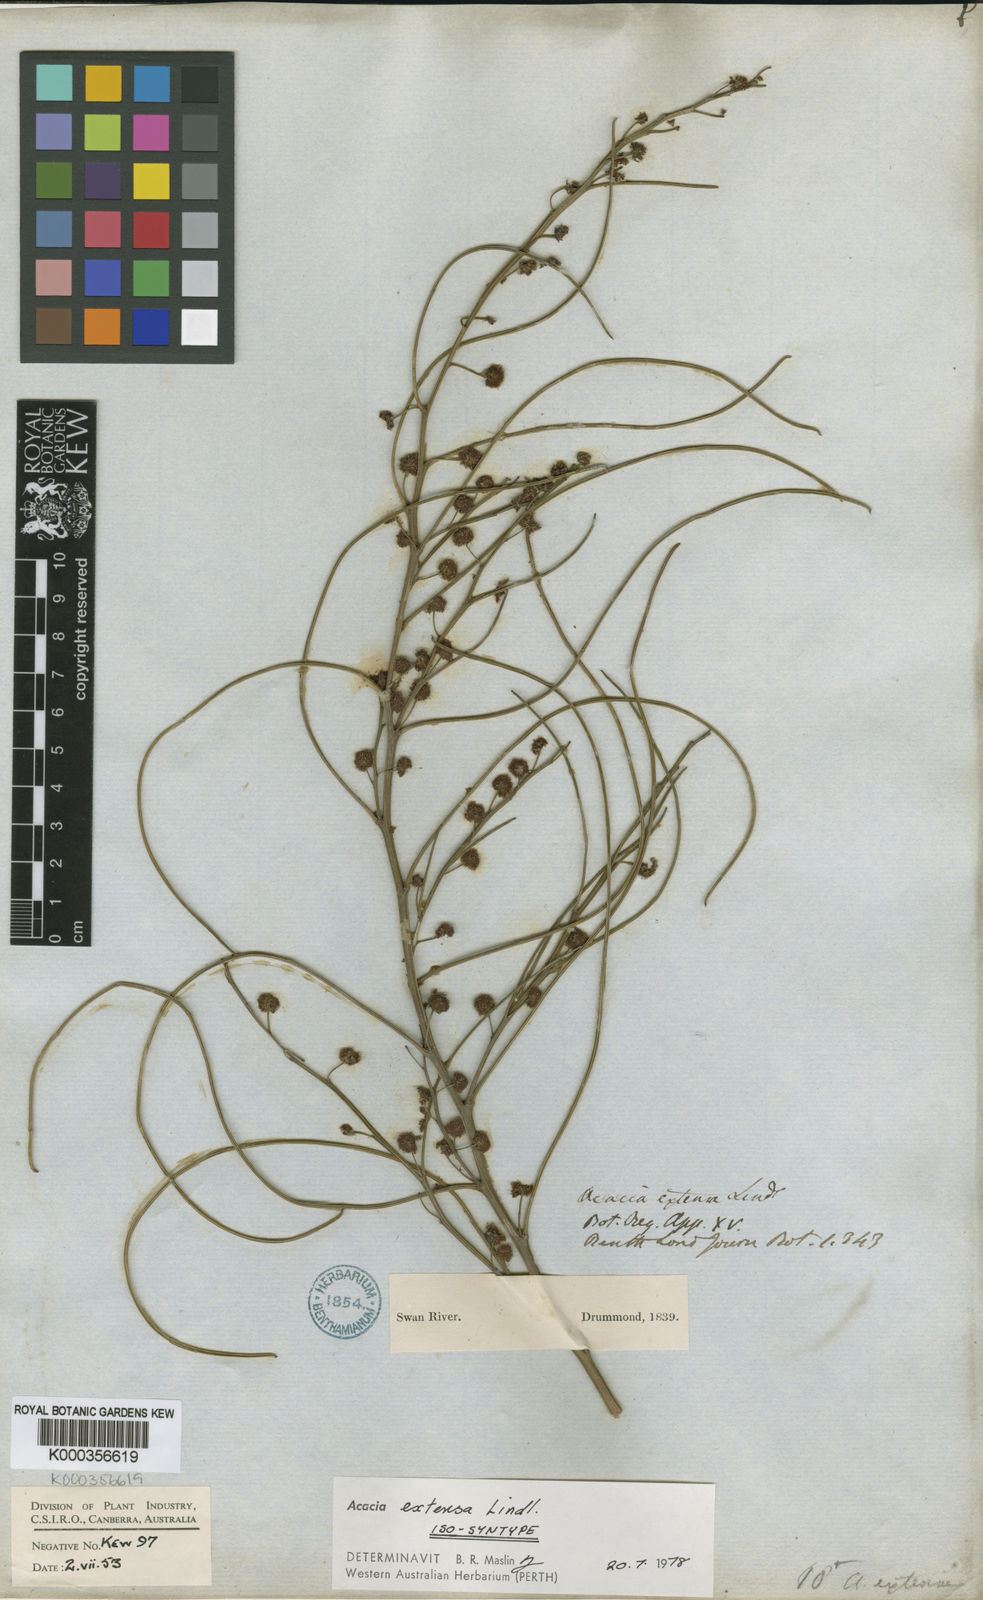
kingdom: Plantae
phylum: Tracheophyta
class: Magnoliopsida
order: Fabales
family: Fabaceae
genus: Acacia
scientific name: Acacia extensa
